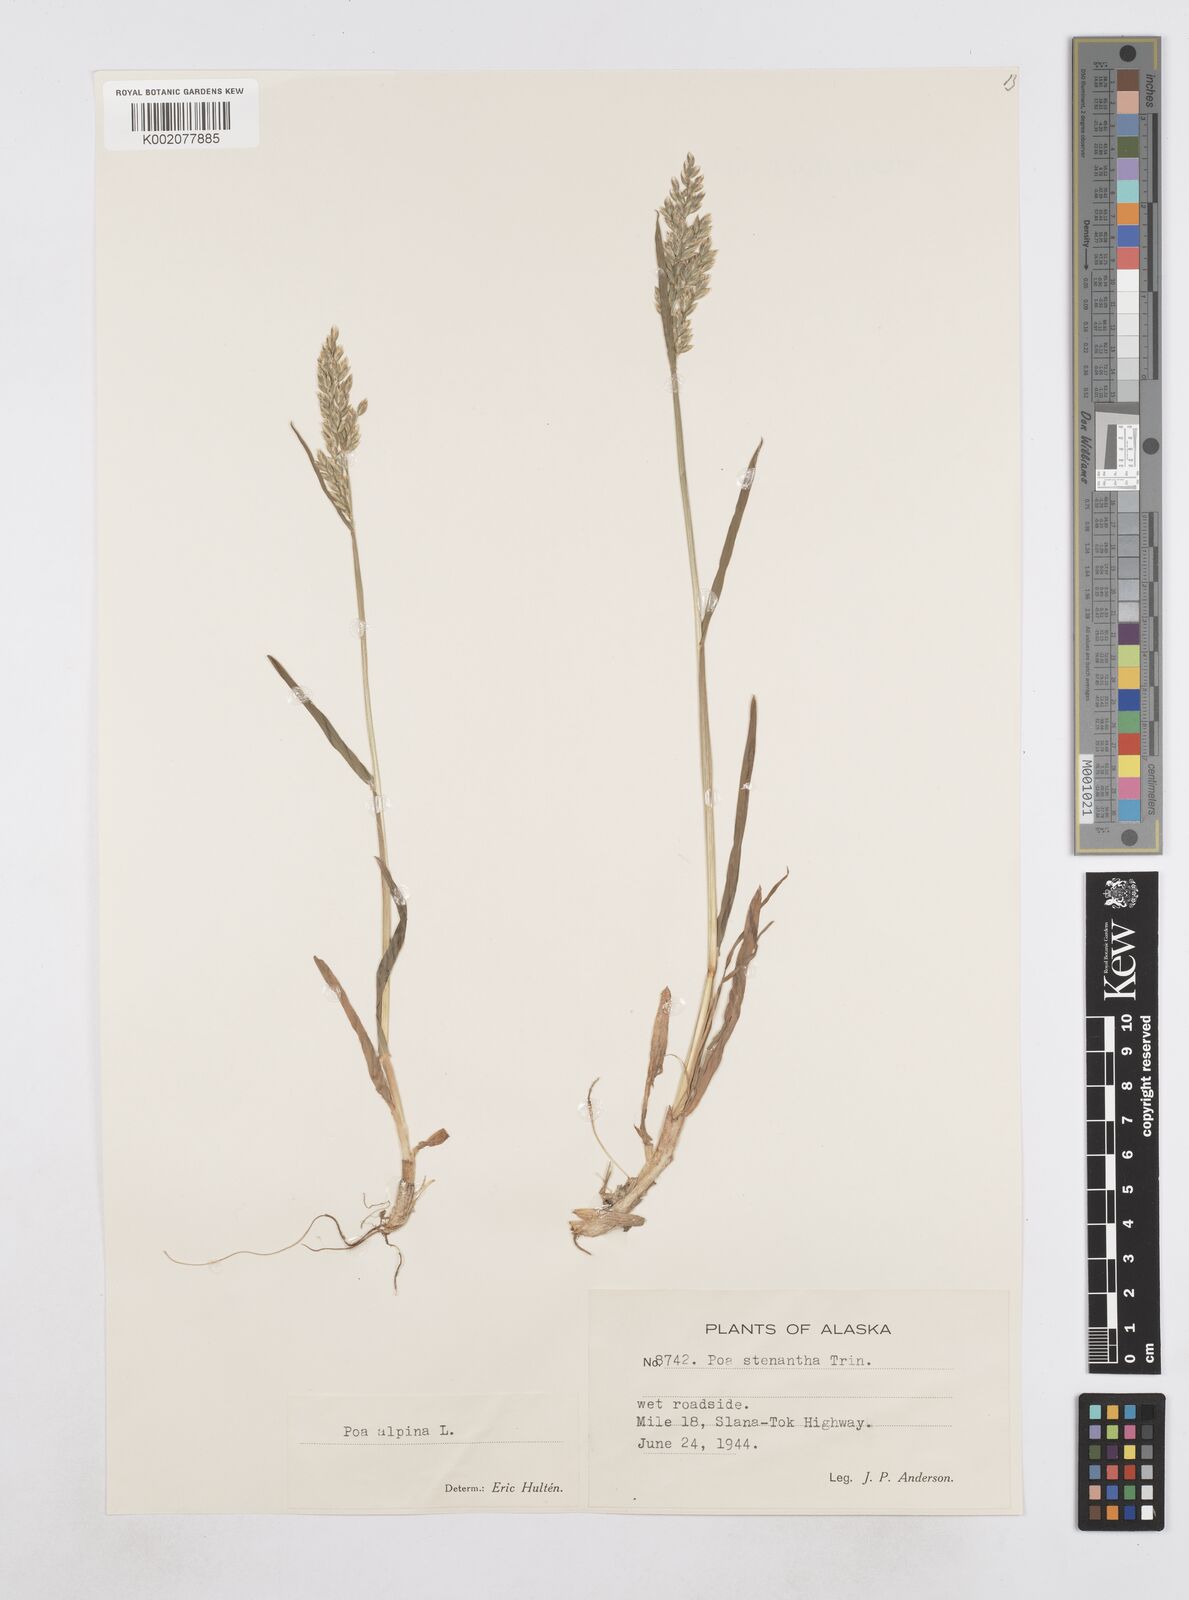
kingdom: Plantae
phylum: Tracheophyta
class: Liliopsida
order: Poales
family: Poaceae
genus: Poa
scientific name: Poa stenantha
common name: Narrow-flowered bluegrass
